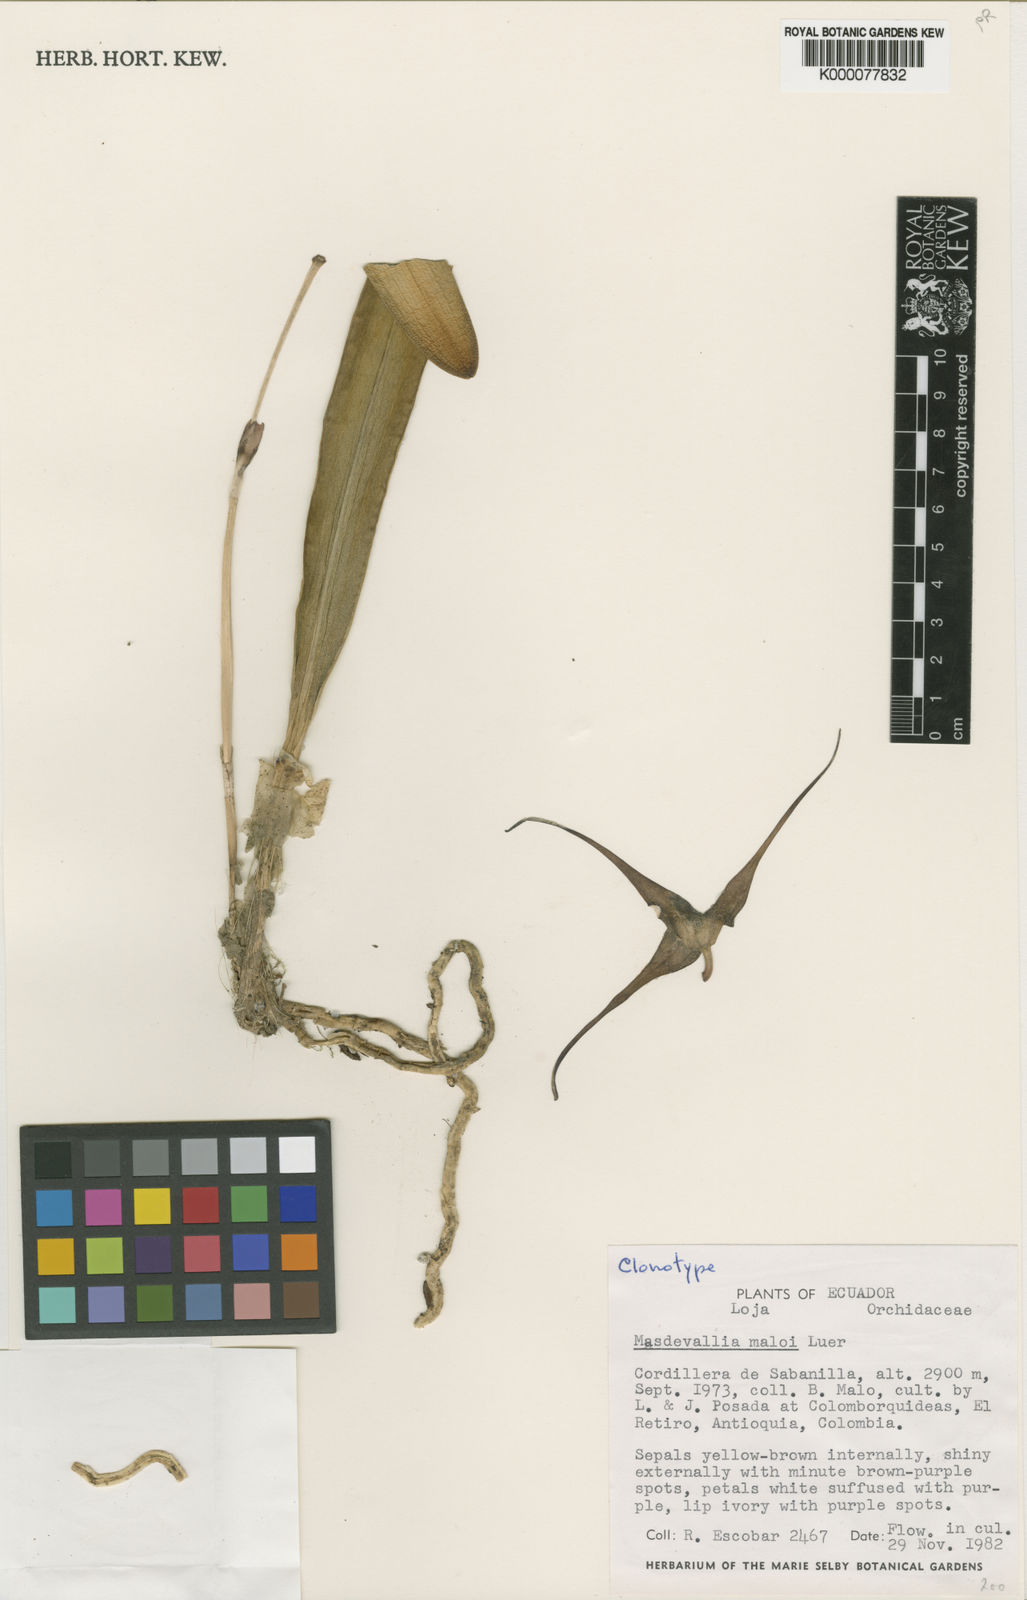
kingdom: Plantae
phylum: Tracheophyta
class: Liliopsida
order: Asparagales
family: Orchidaceae
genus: Masdevallia
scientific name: Masdevallia maloi
